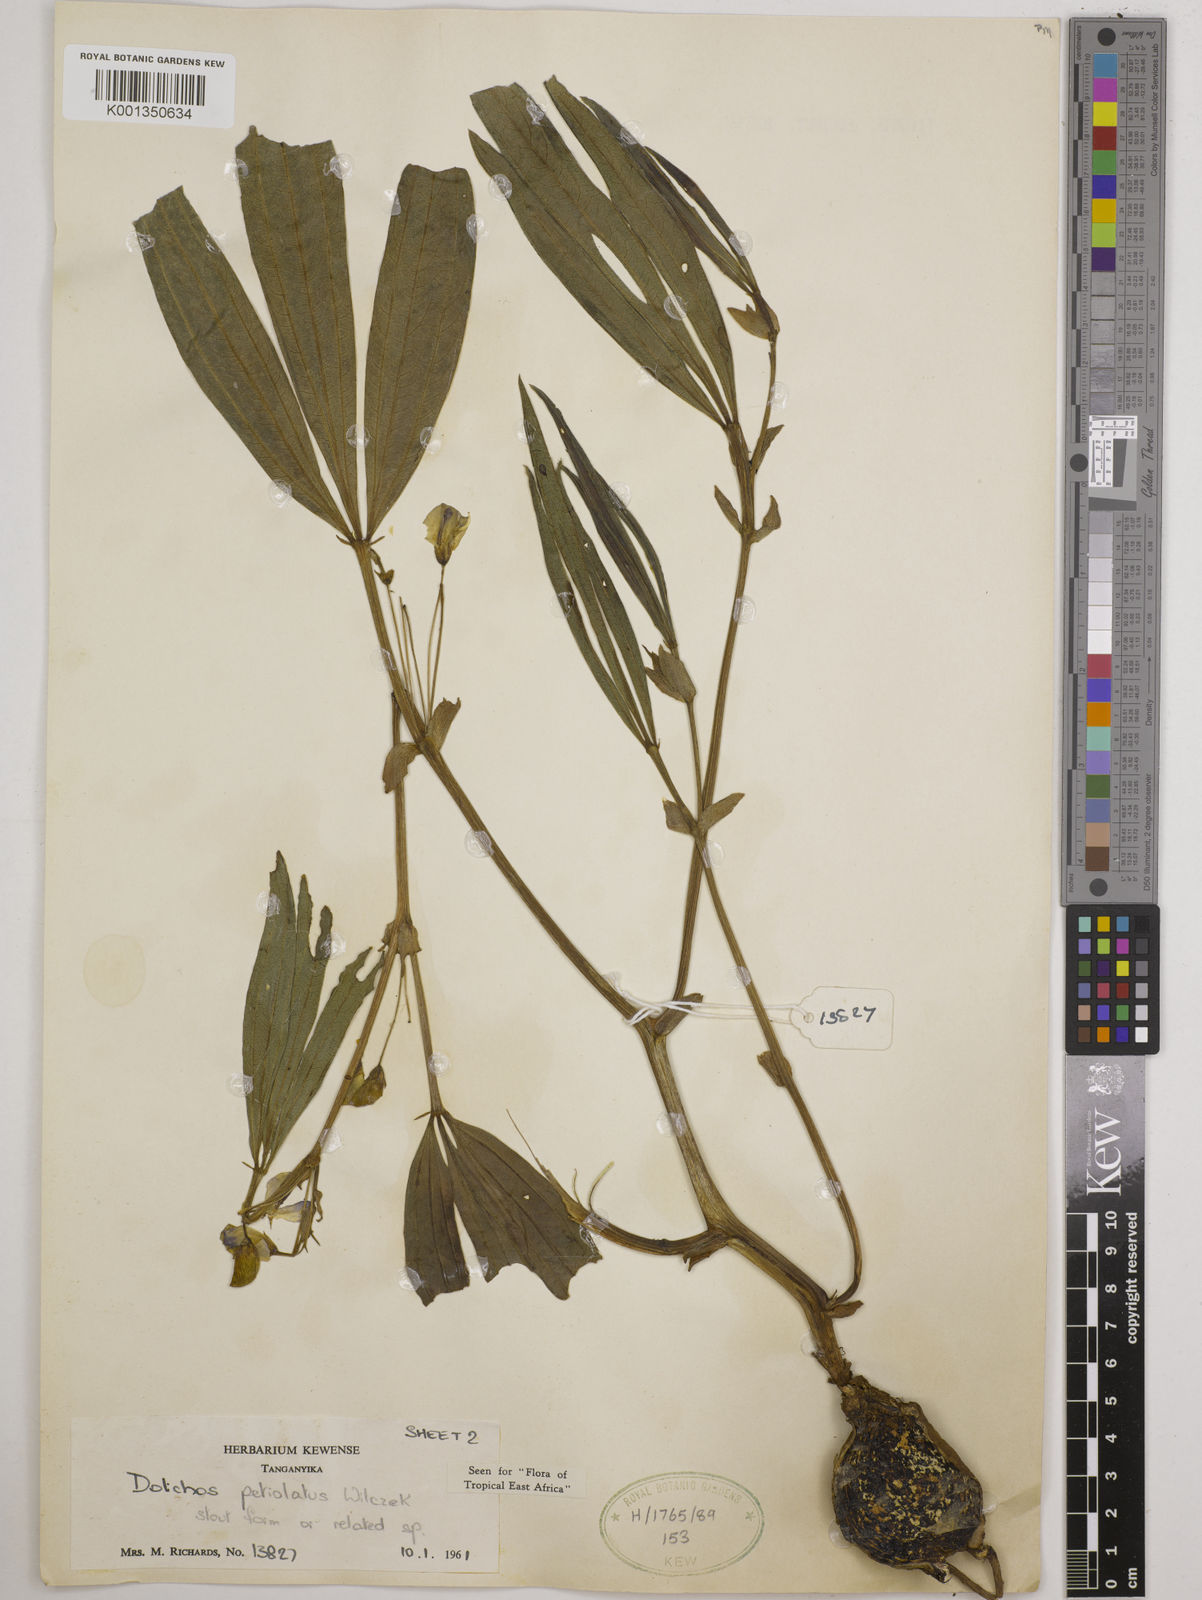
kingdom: Plantae
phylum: Tracheophyta
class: Magnoliopsida
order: Fabales
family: Fabaceae
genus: Dolichos
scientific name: Dolichos petiolatus
